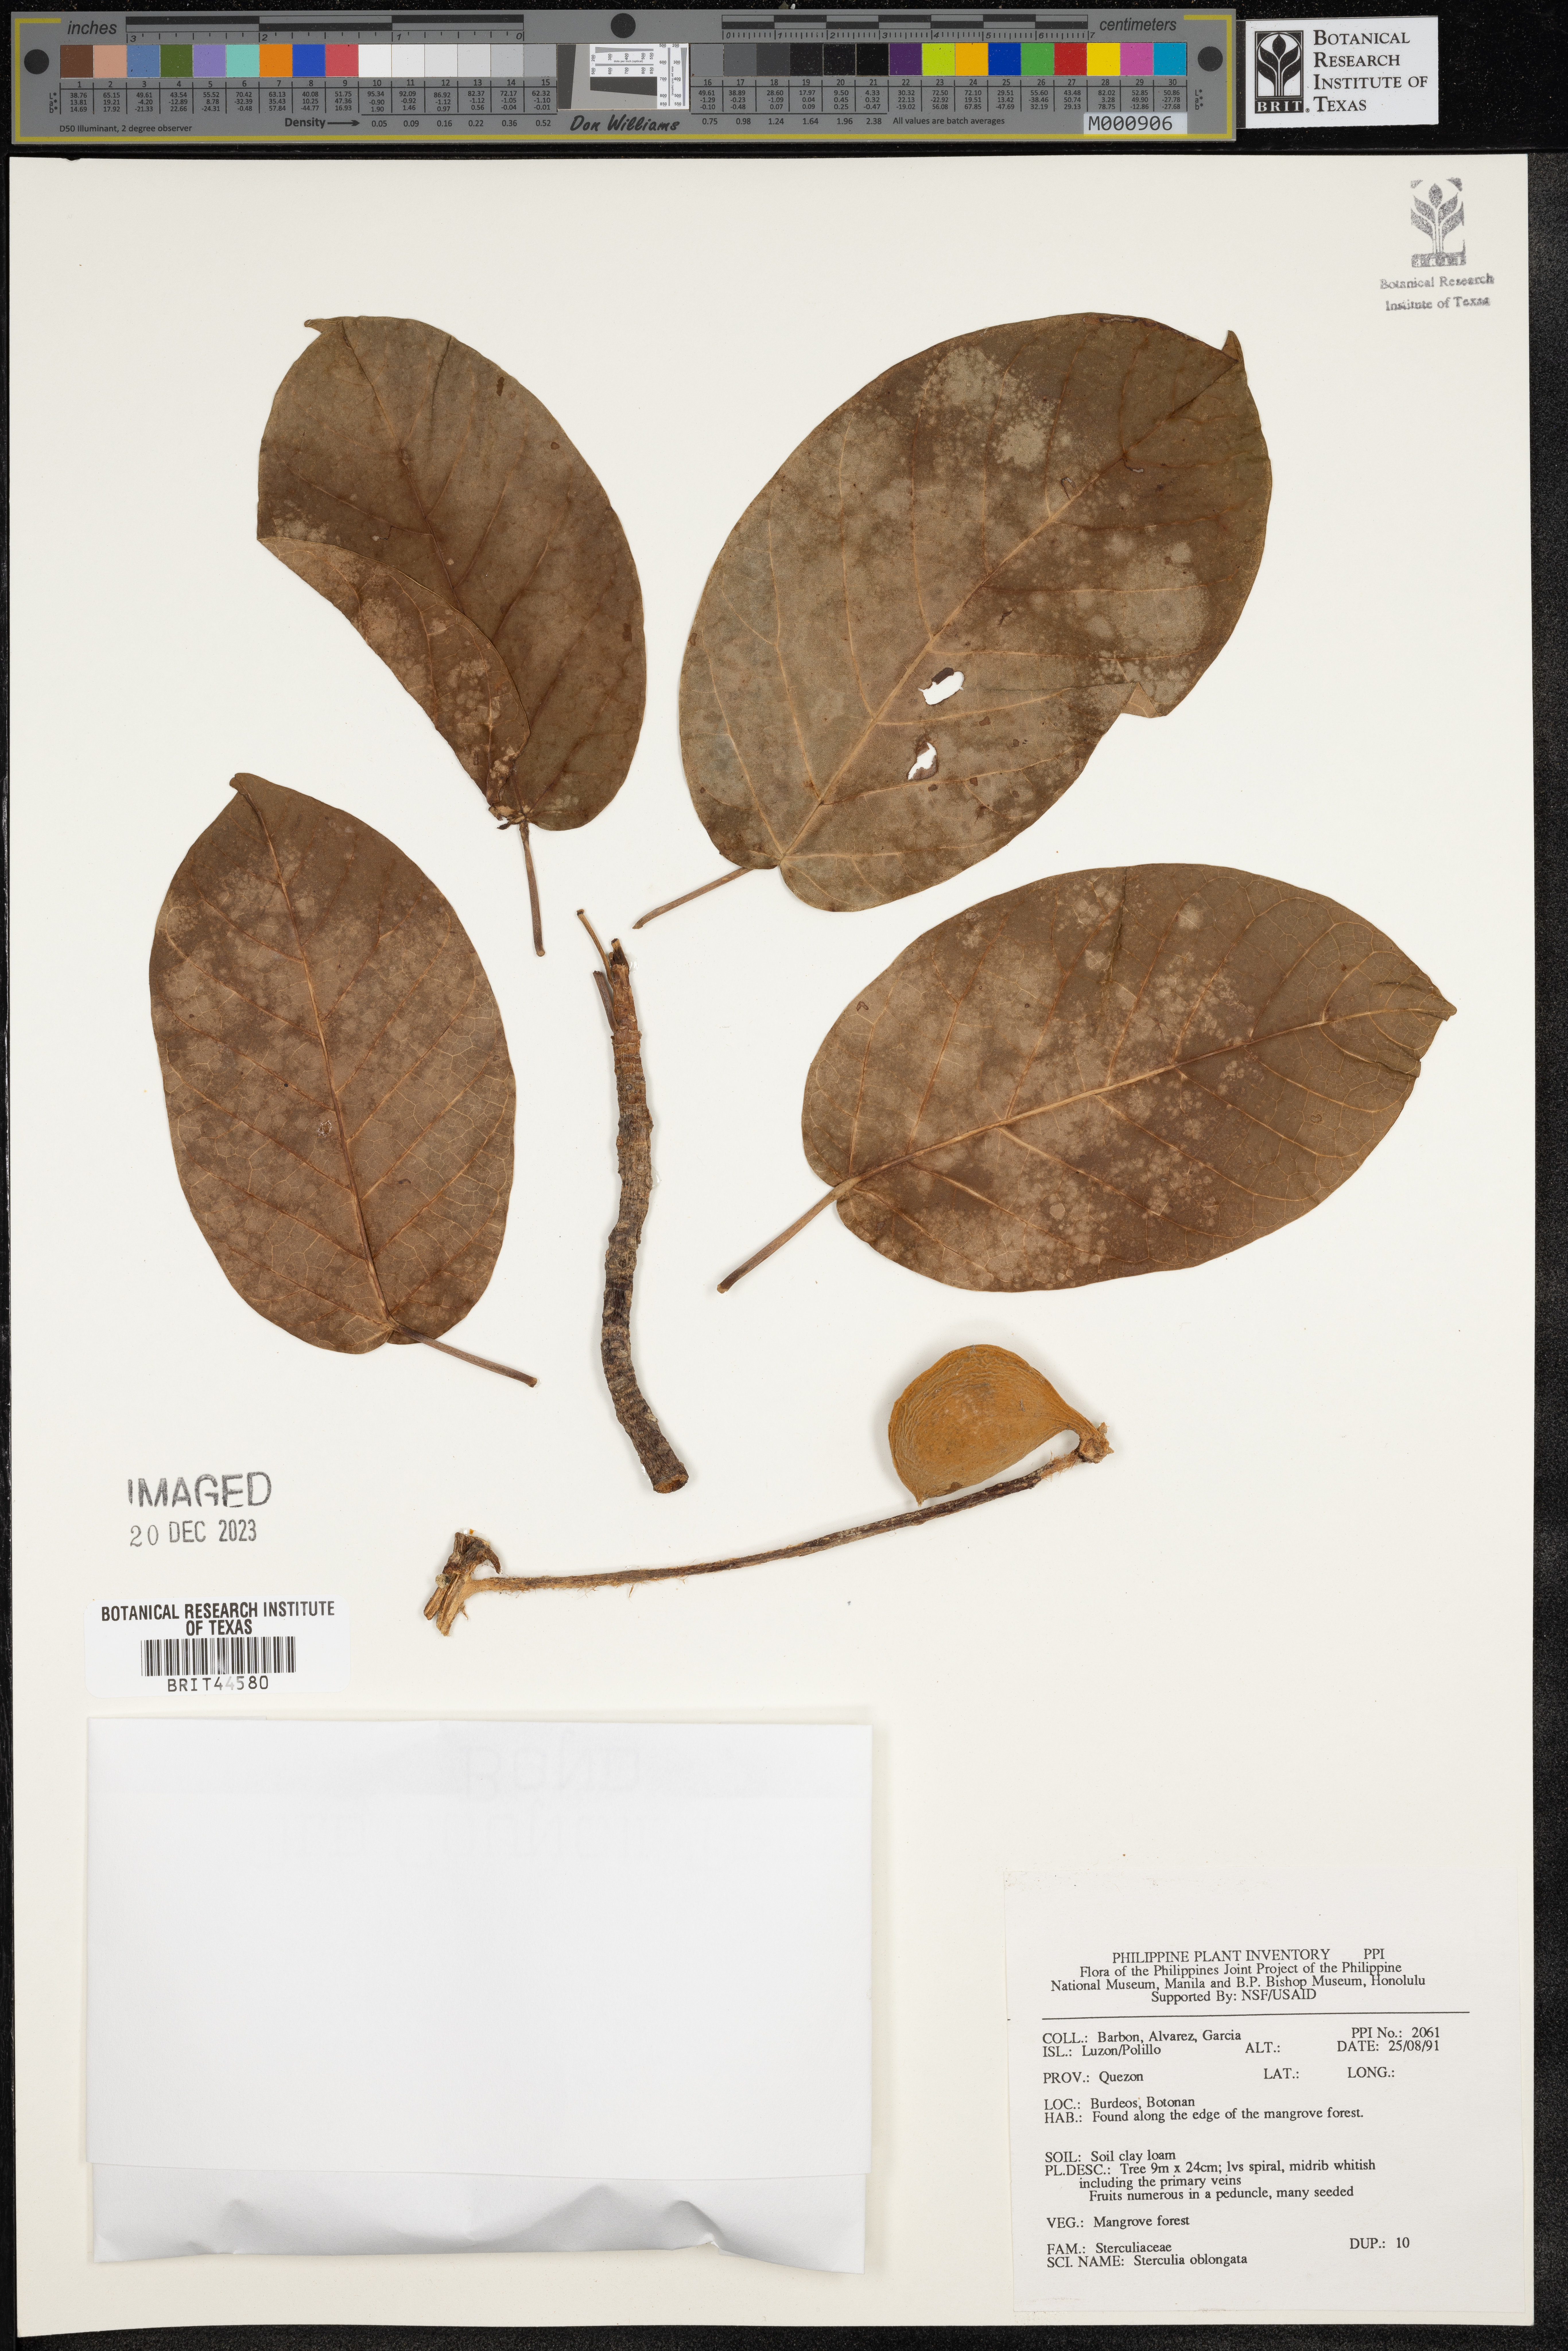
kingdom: Plantae
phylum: Tracheophyta
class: Magnoliopsida
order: Malvales
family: Malvaceae
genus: Sterculia
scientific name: Sterculia oblongata
